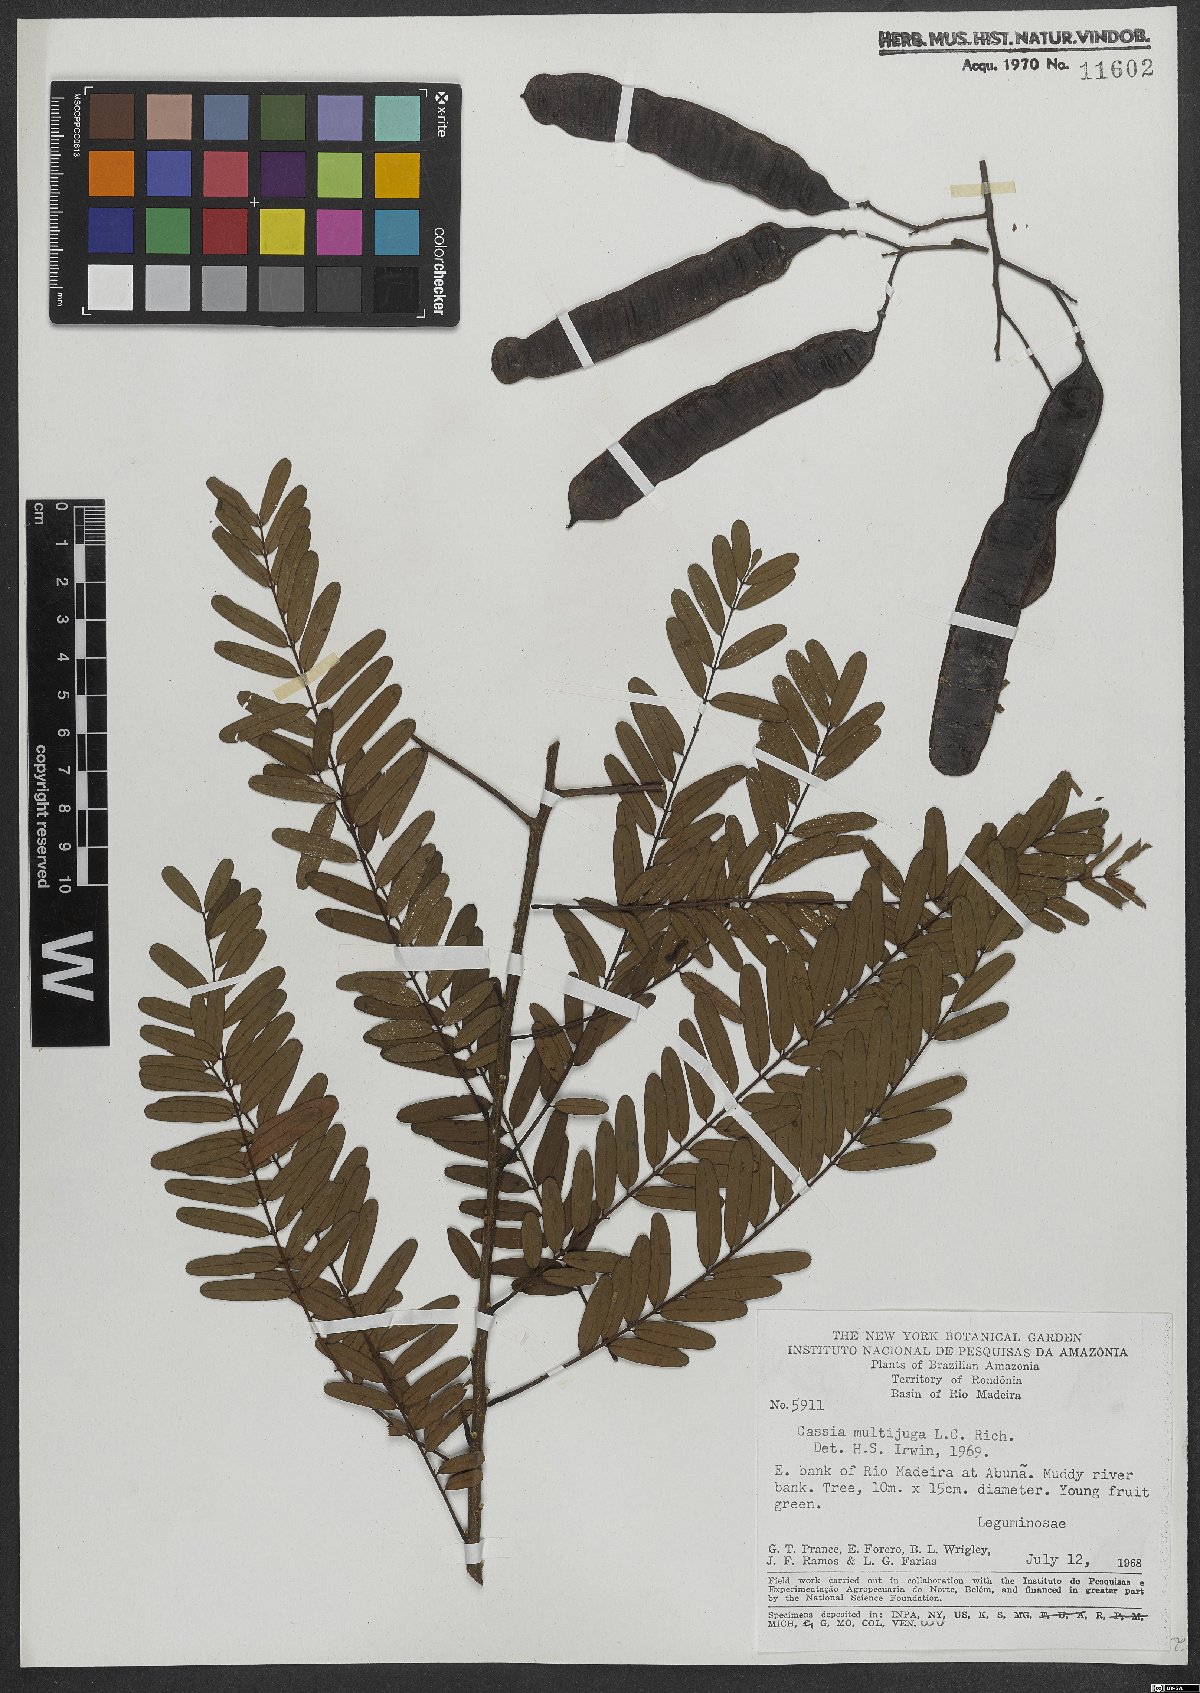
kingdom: Plantae
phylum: Tracheophyta
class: Magnoliopsida
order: Fabales
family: Fabaceae
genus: Senna
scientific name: Senna multijuga
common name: False sicklepod
